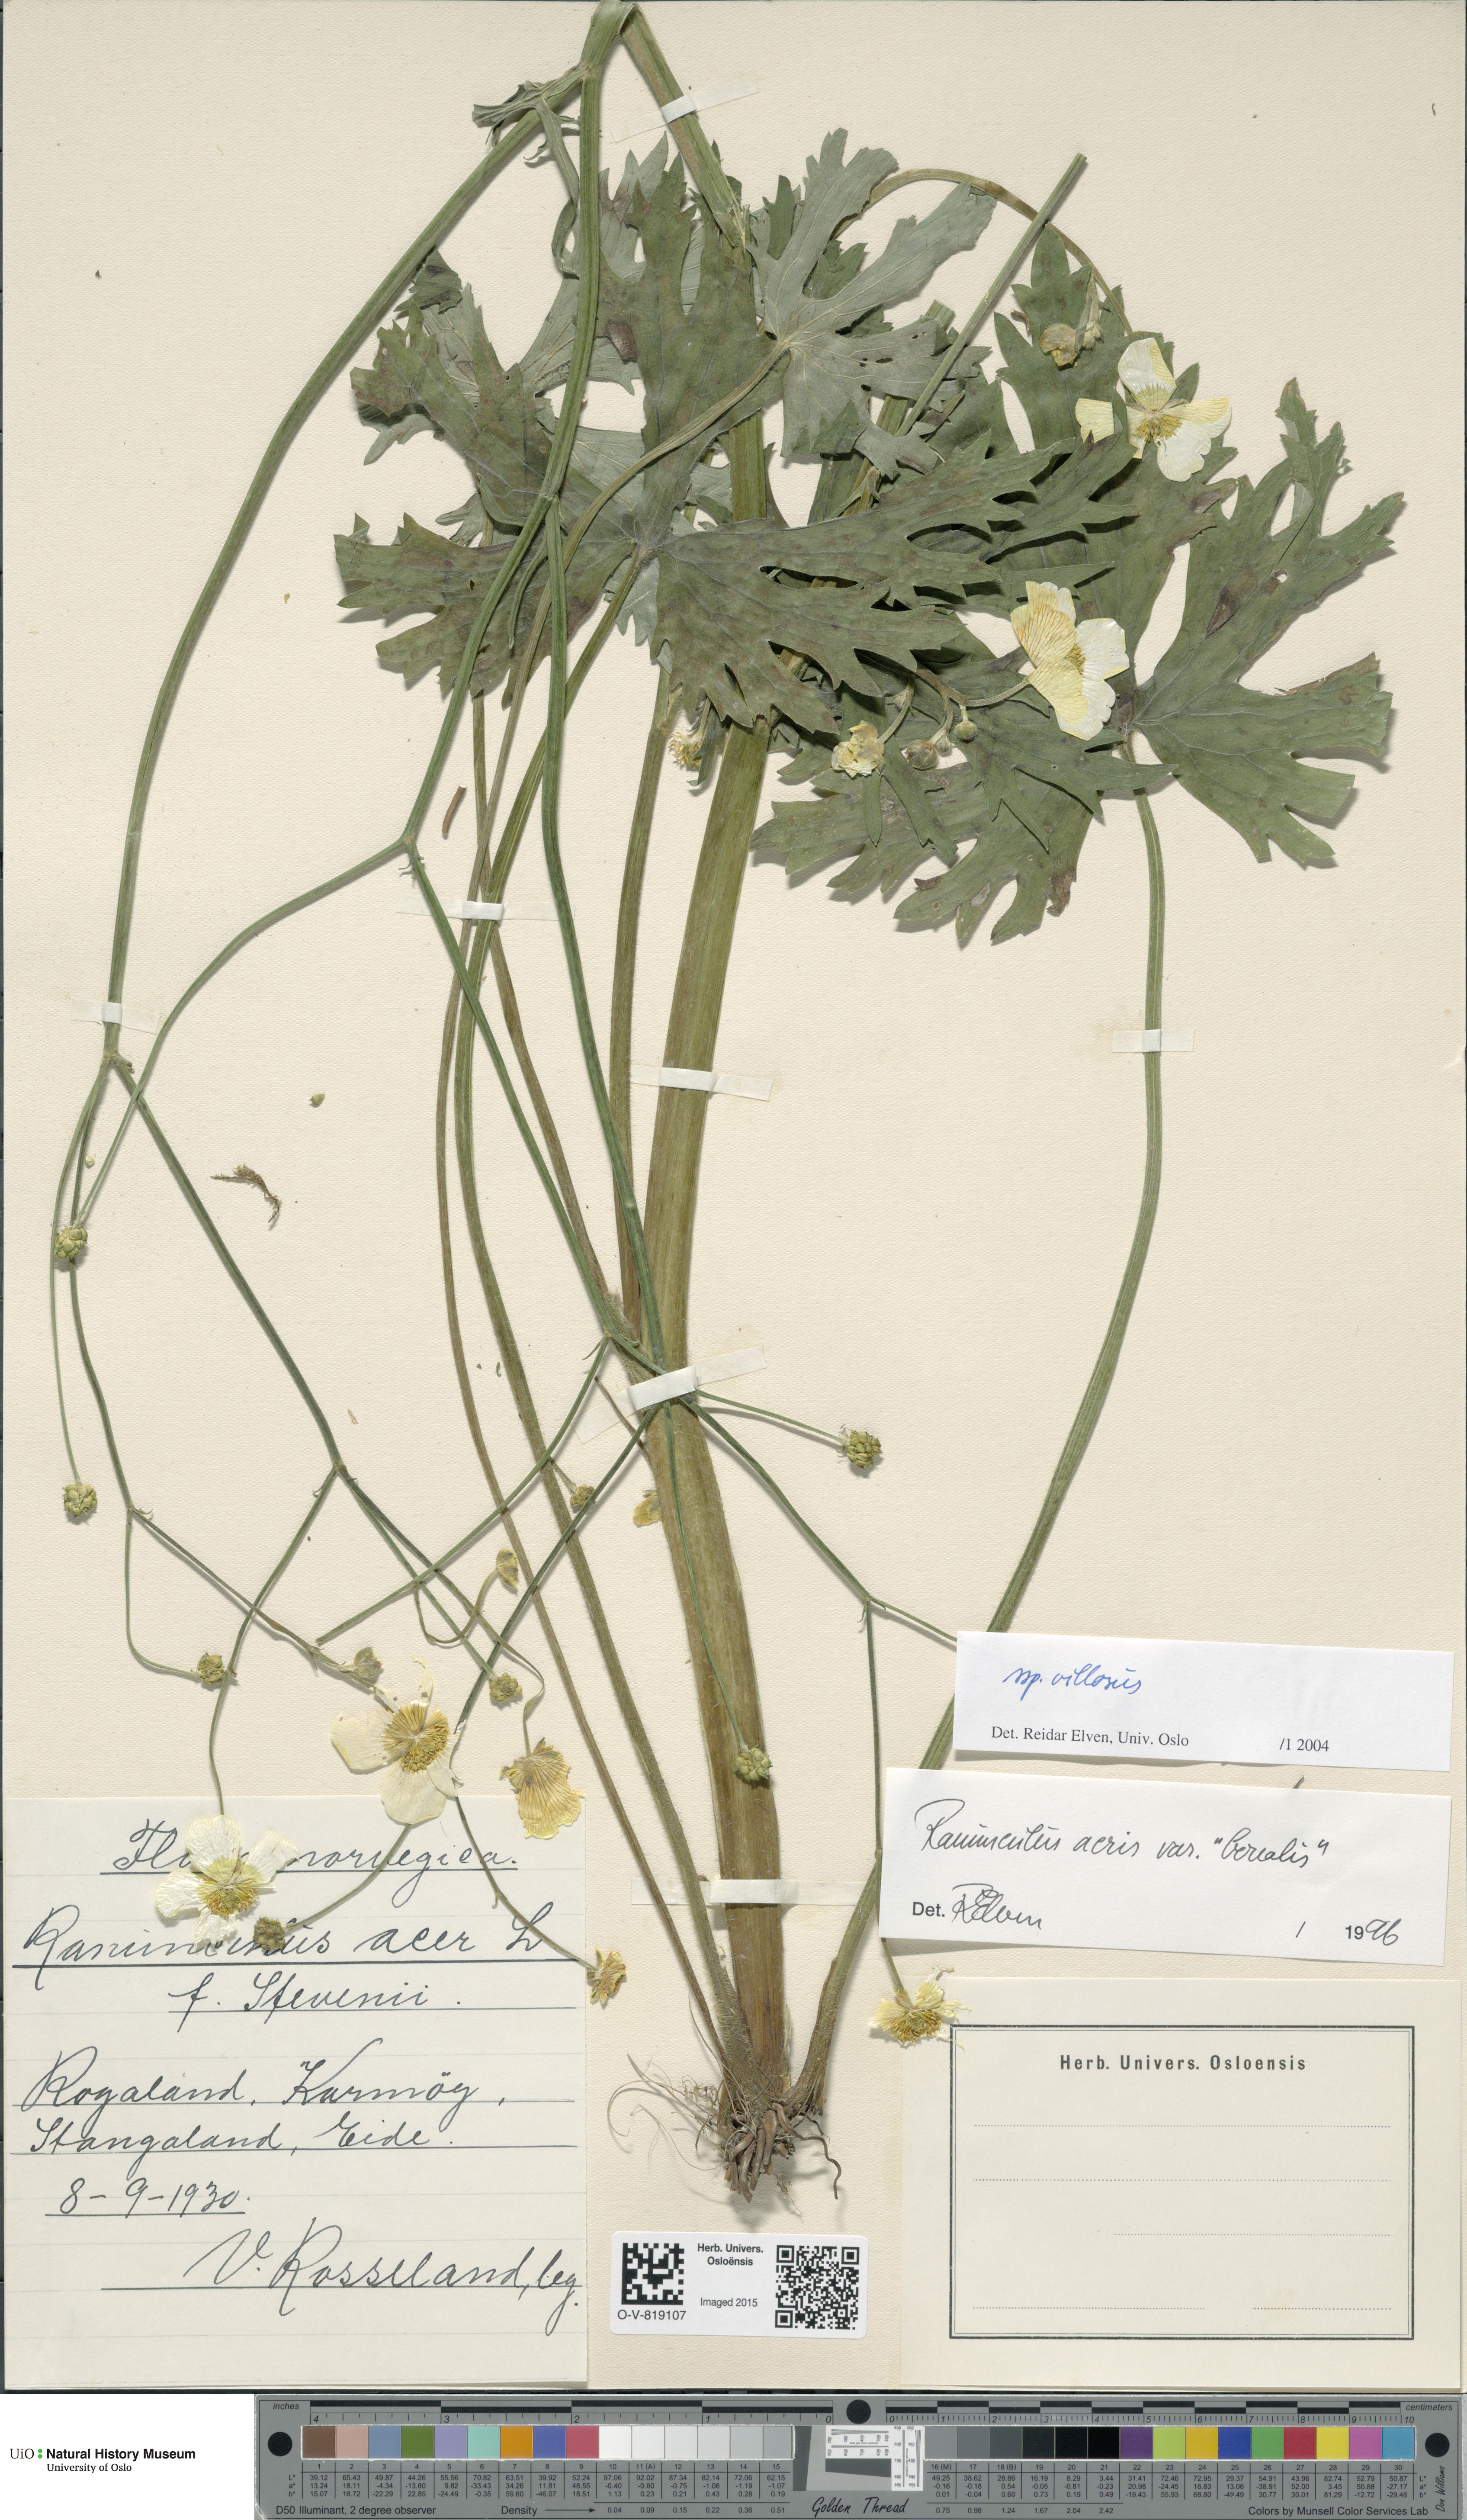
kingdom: Plantae
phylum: Tracheophyta
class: Magnoliopsida
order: Ranunculales
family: Ranunculaceae
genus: Ranunculus
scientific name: Ranunculus propinquus
